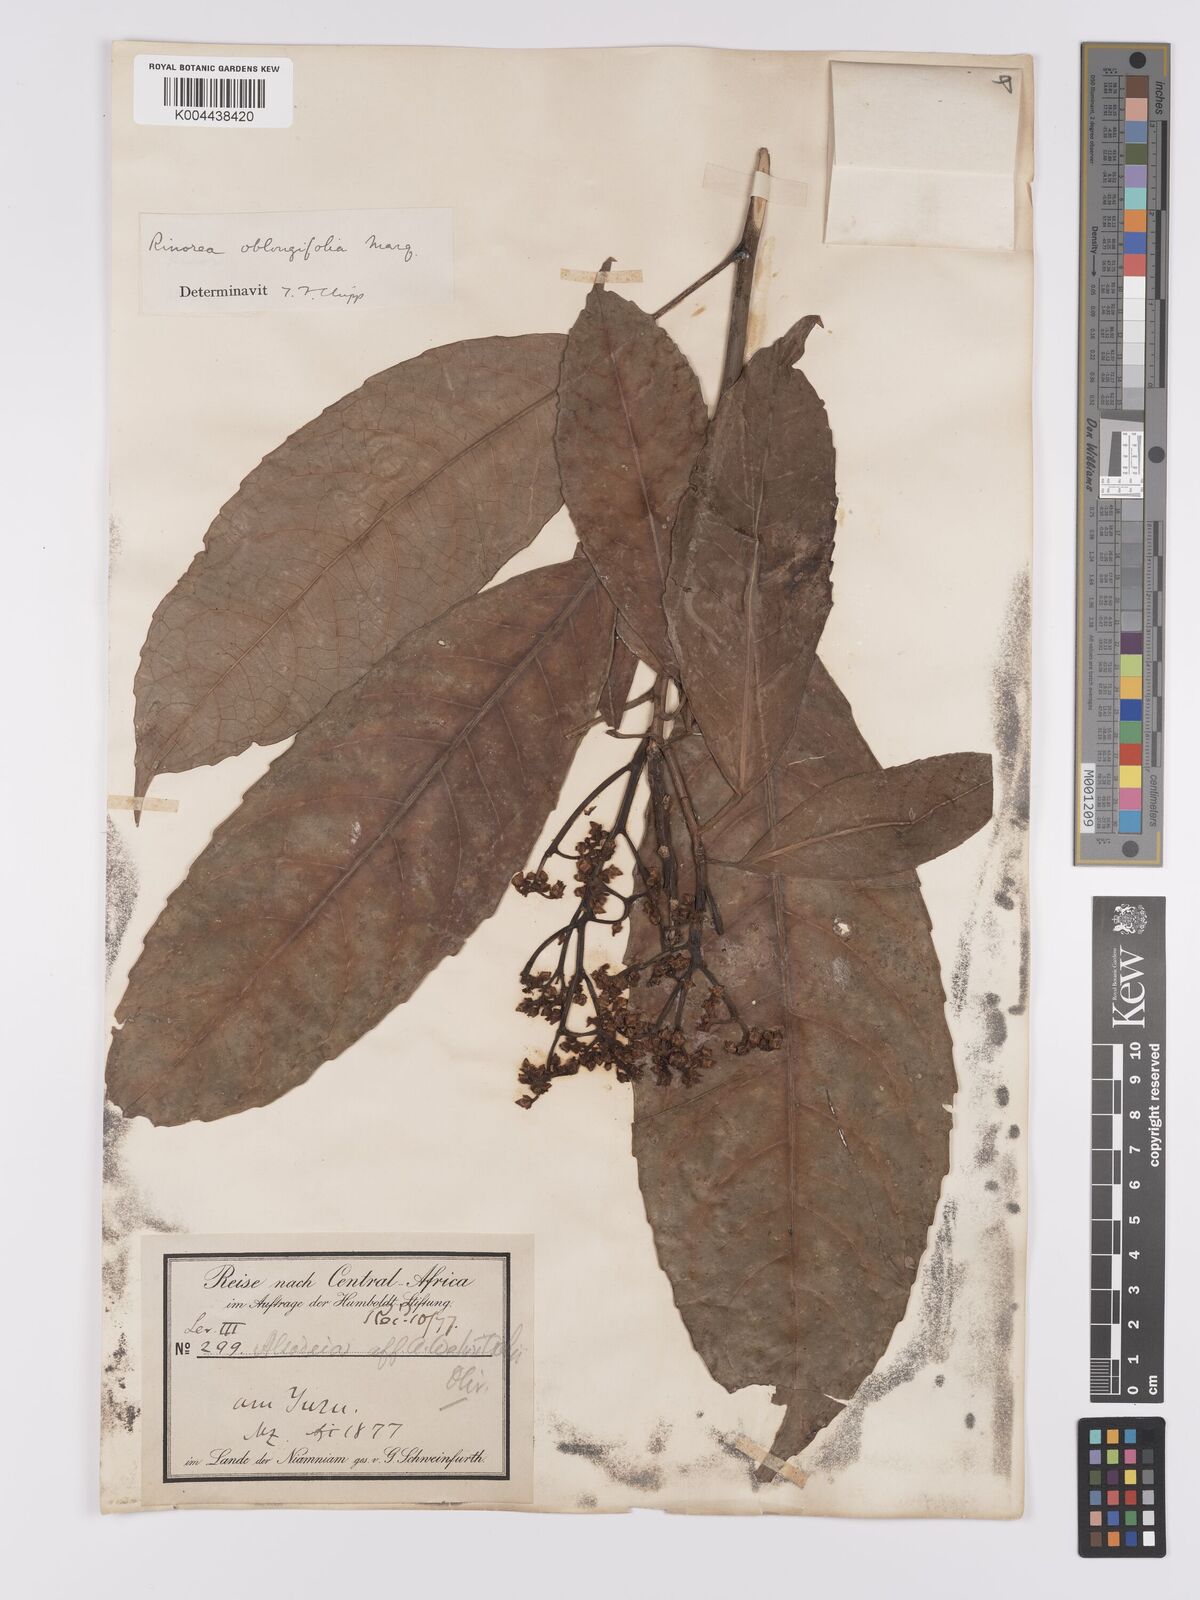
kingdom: Plantae
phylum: Tracheophyta
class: Magnoliopsida
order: Apiales
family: Pittosporaceae
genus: Marianthus
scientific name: Marianthus coeruleopunctatus
